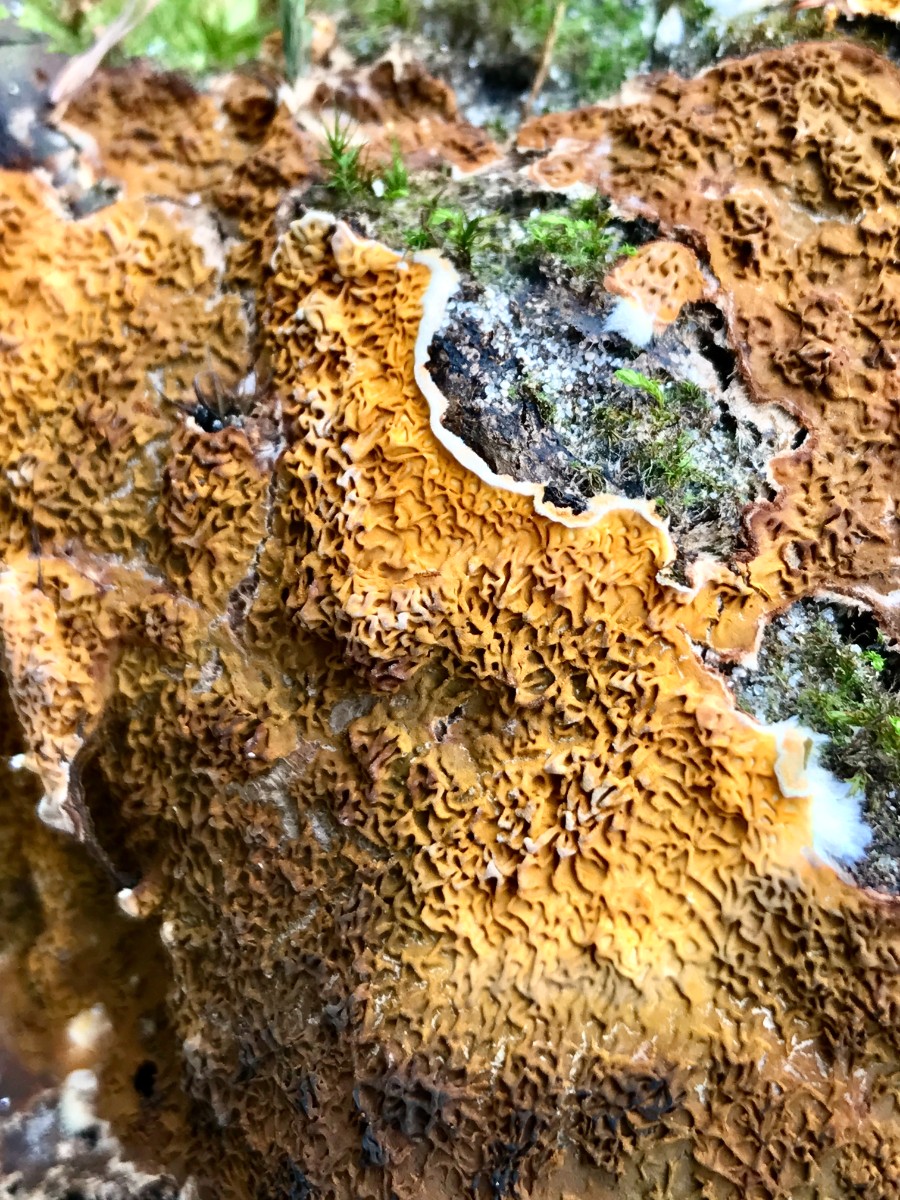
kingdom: Fungi
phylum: Basidiomycota
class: Agaricomycetes
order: Boletales
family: Serpulaceae
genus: Serpula
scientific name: Serpula himantioides
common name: tyndkødet hussvamp
